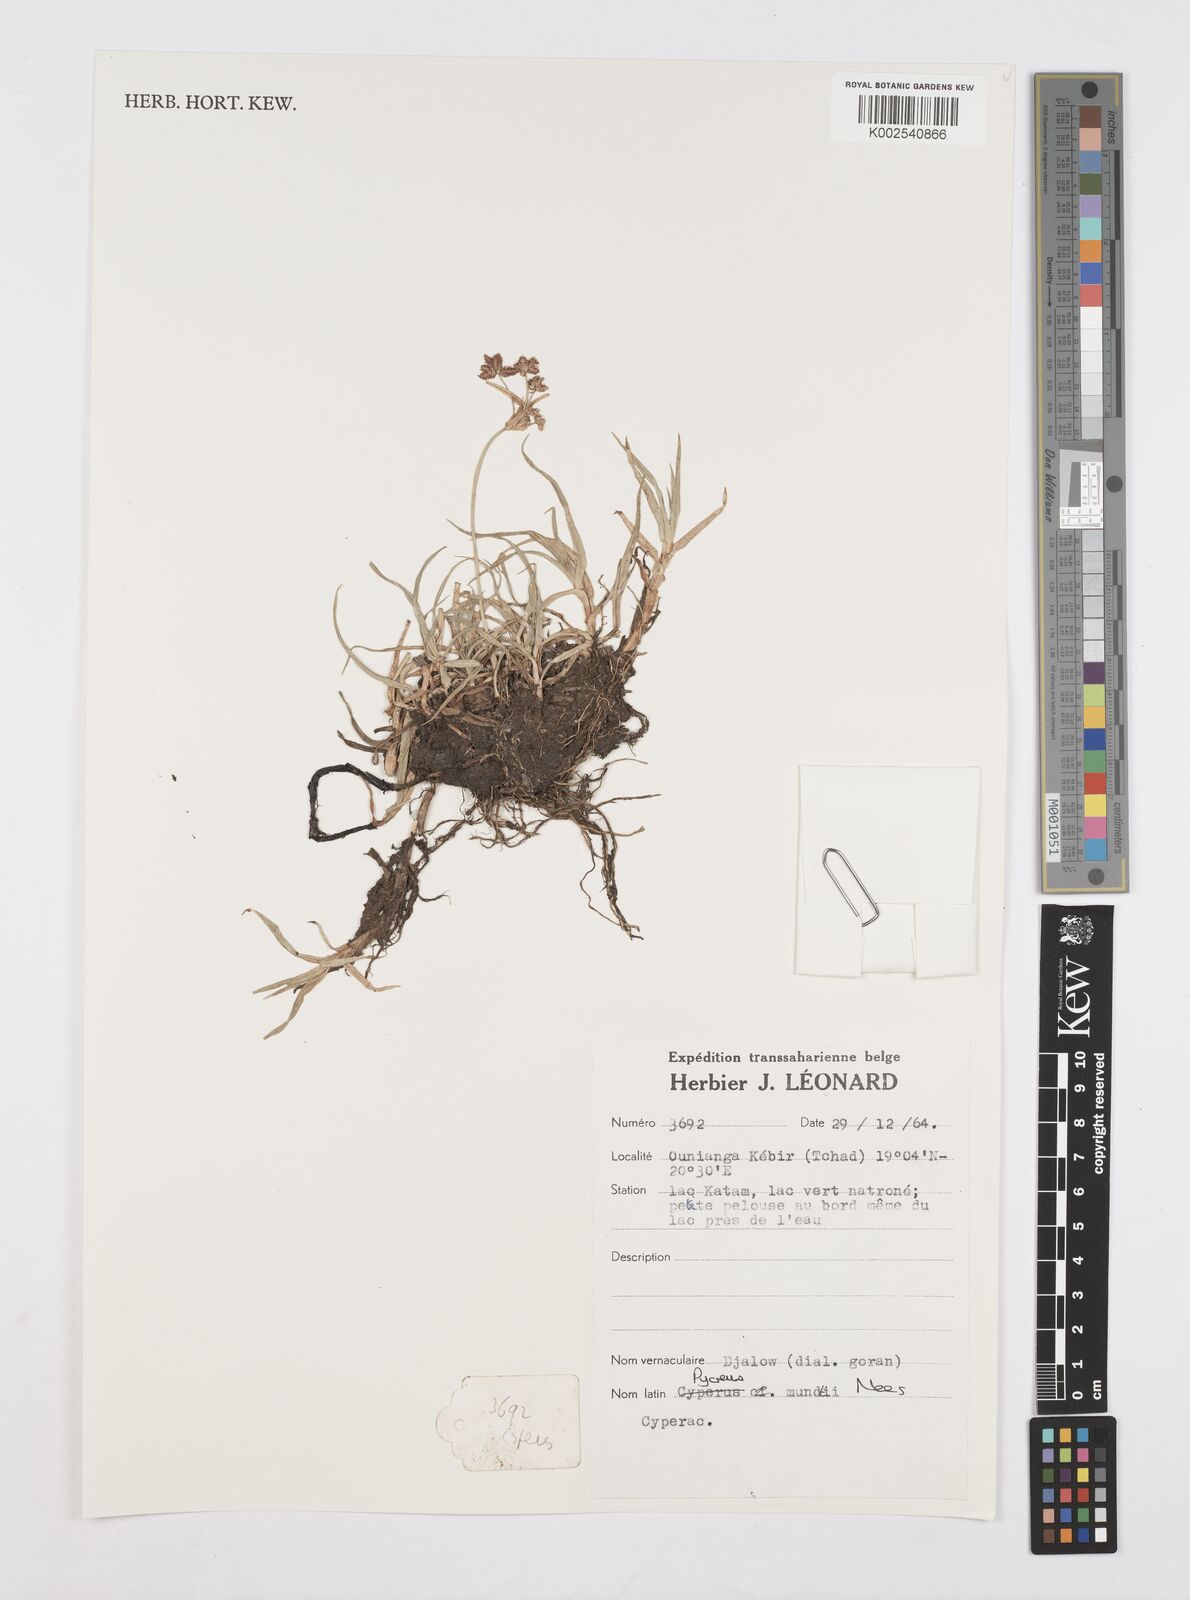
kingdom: Plantae
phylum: Tracheophyta
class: Liliopsida
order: Poales
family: Cyperaceae
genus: Cyperus
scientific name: Cyperus mundii
